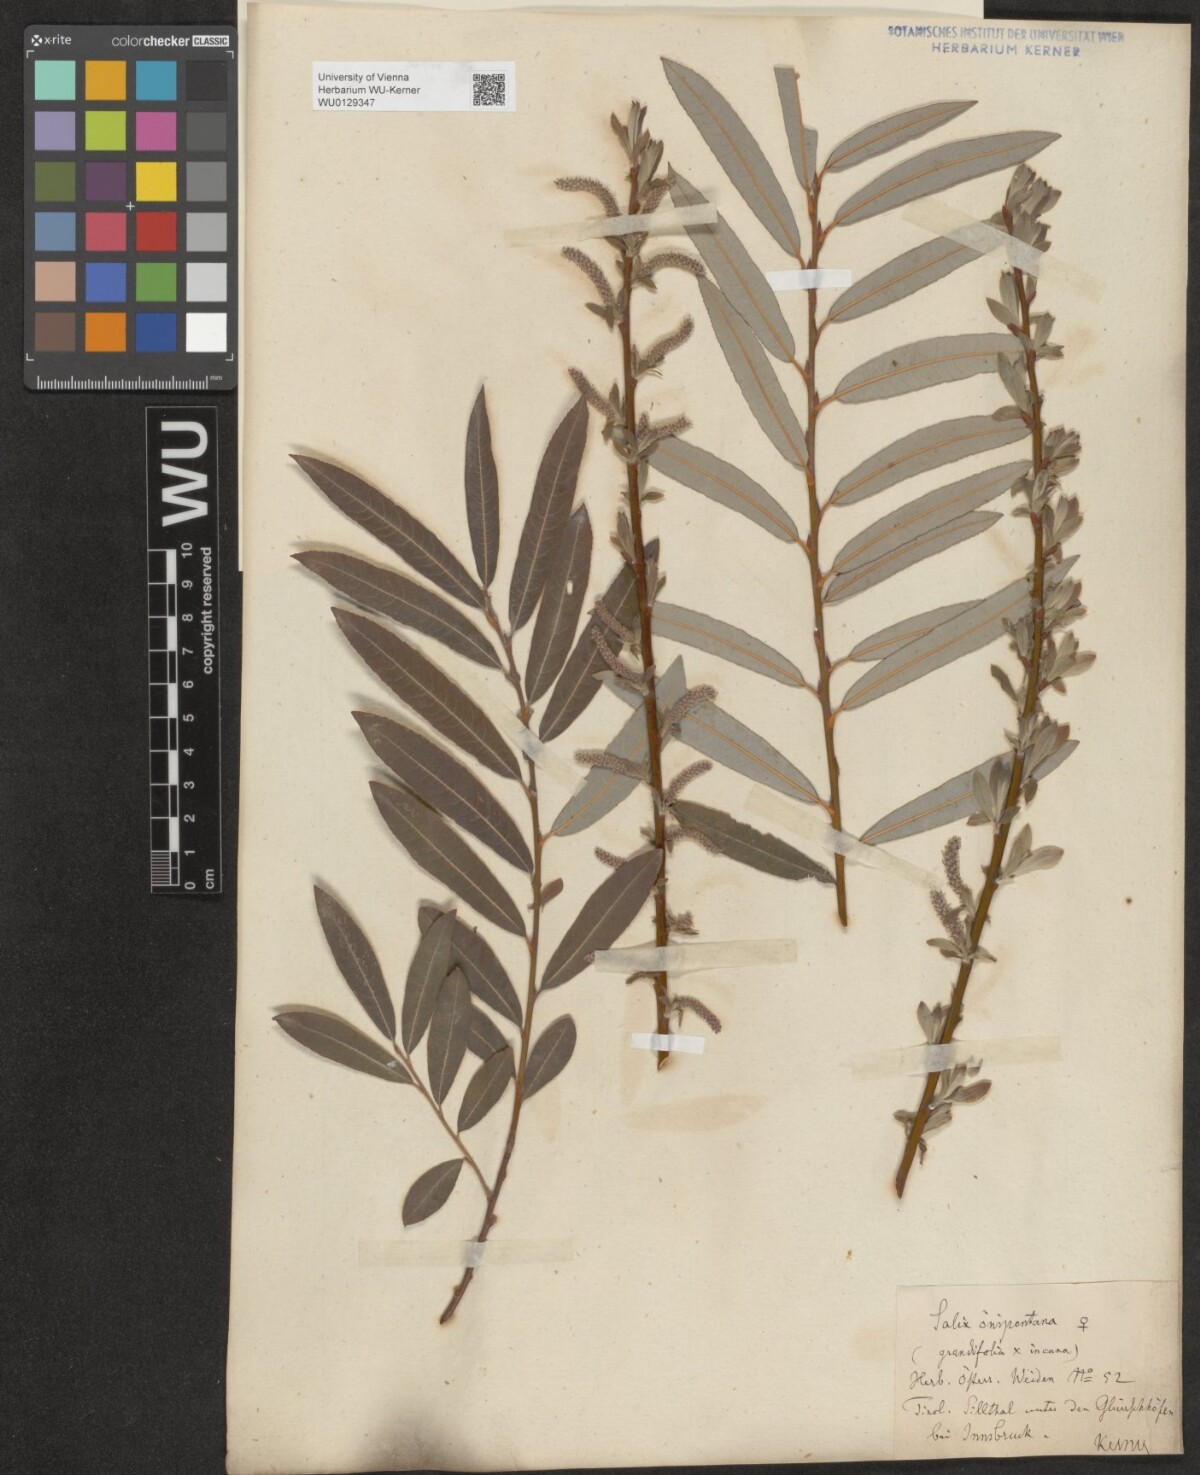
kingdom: Plantae
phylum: Tracheophyta
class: Magnoliopsida
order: Malpighiales
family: Salicaceae
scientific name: Salicaceae
